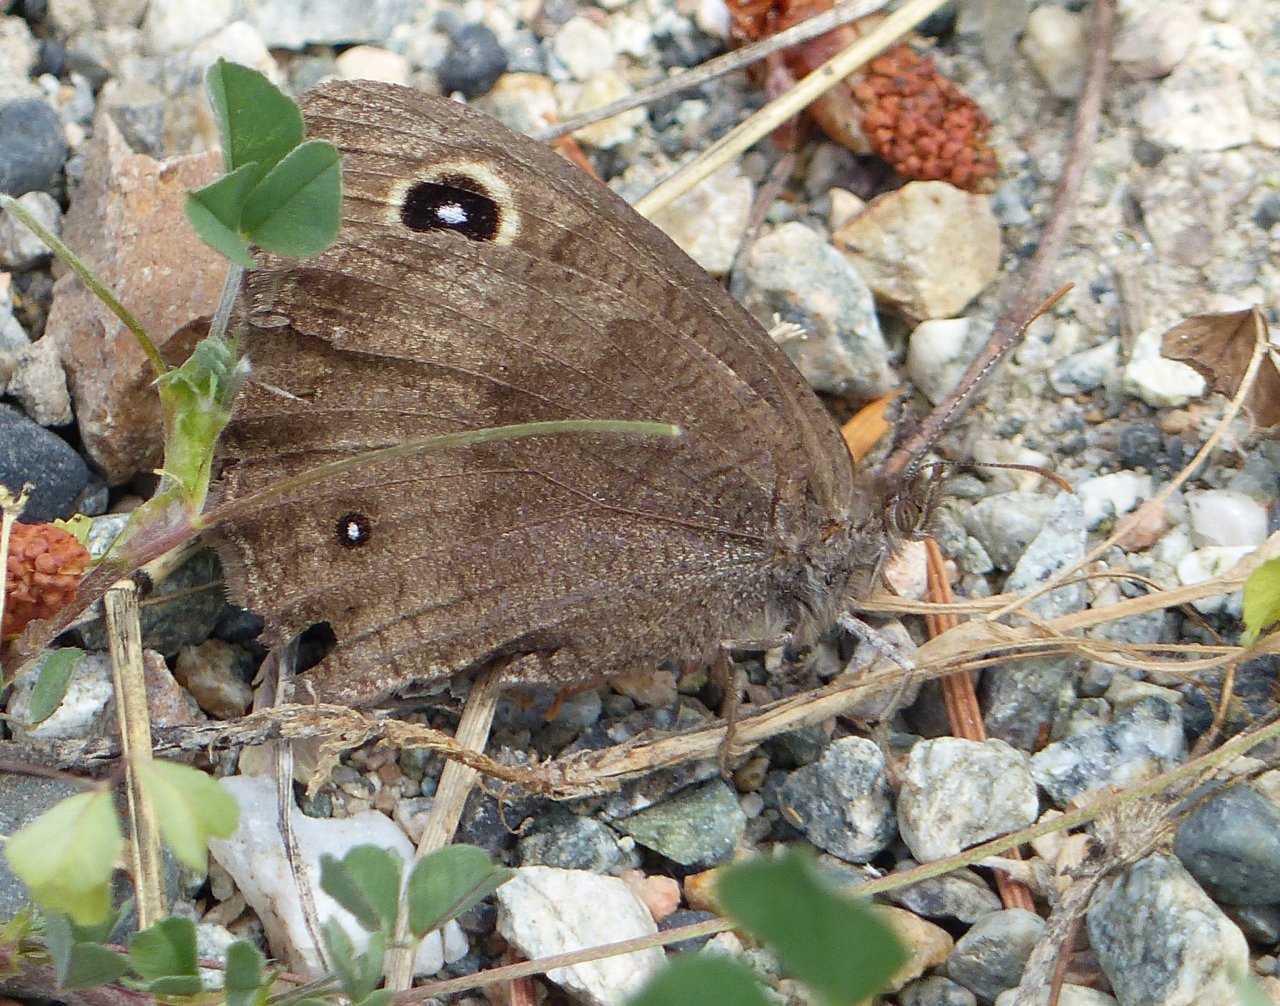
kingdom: Animalia
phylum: Arthropoda
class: Insecta
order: Lepidoptera
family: Nymphalidae
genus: Cercyonis
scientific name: Cercyonis pegala
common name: Common Wood-Nymph
